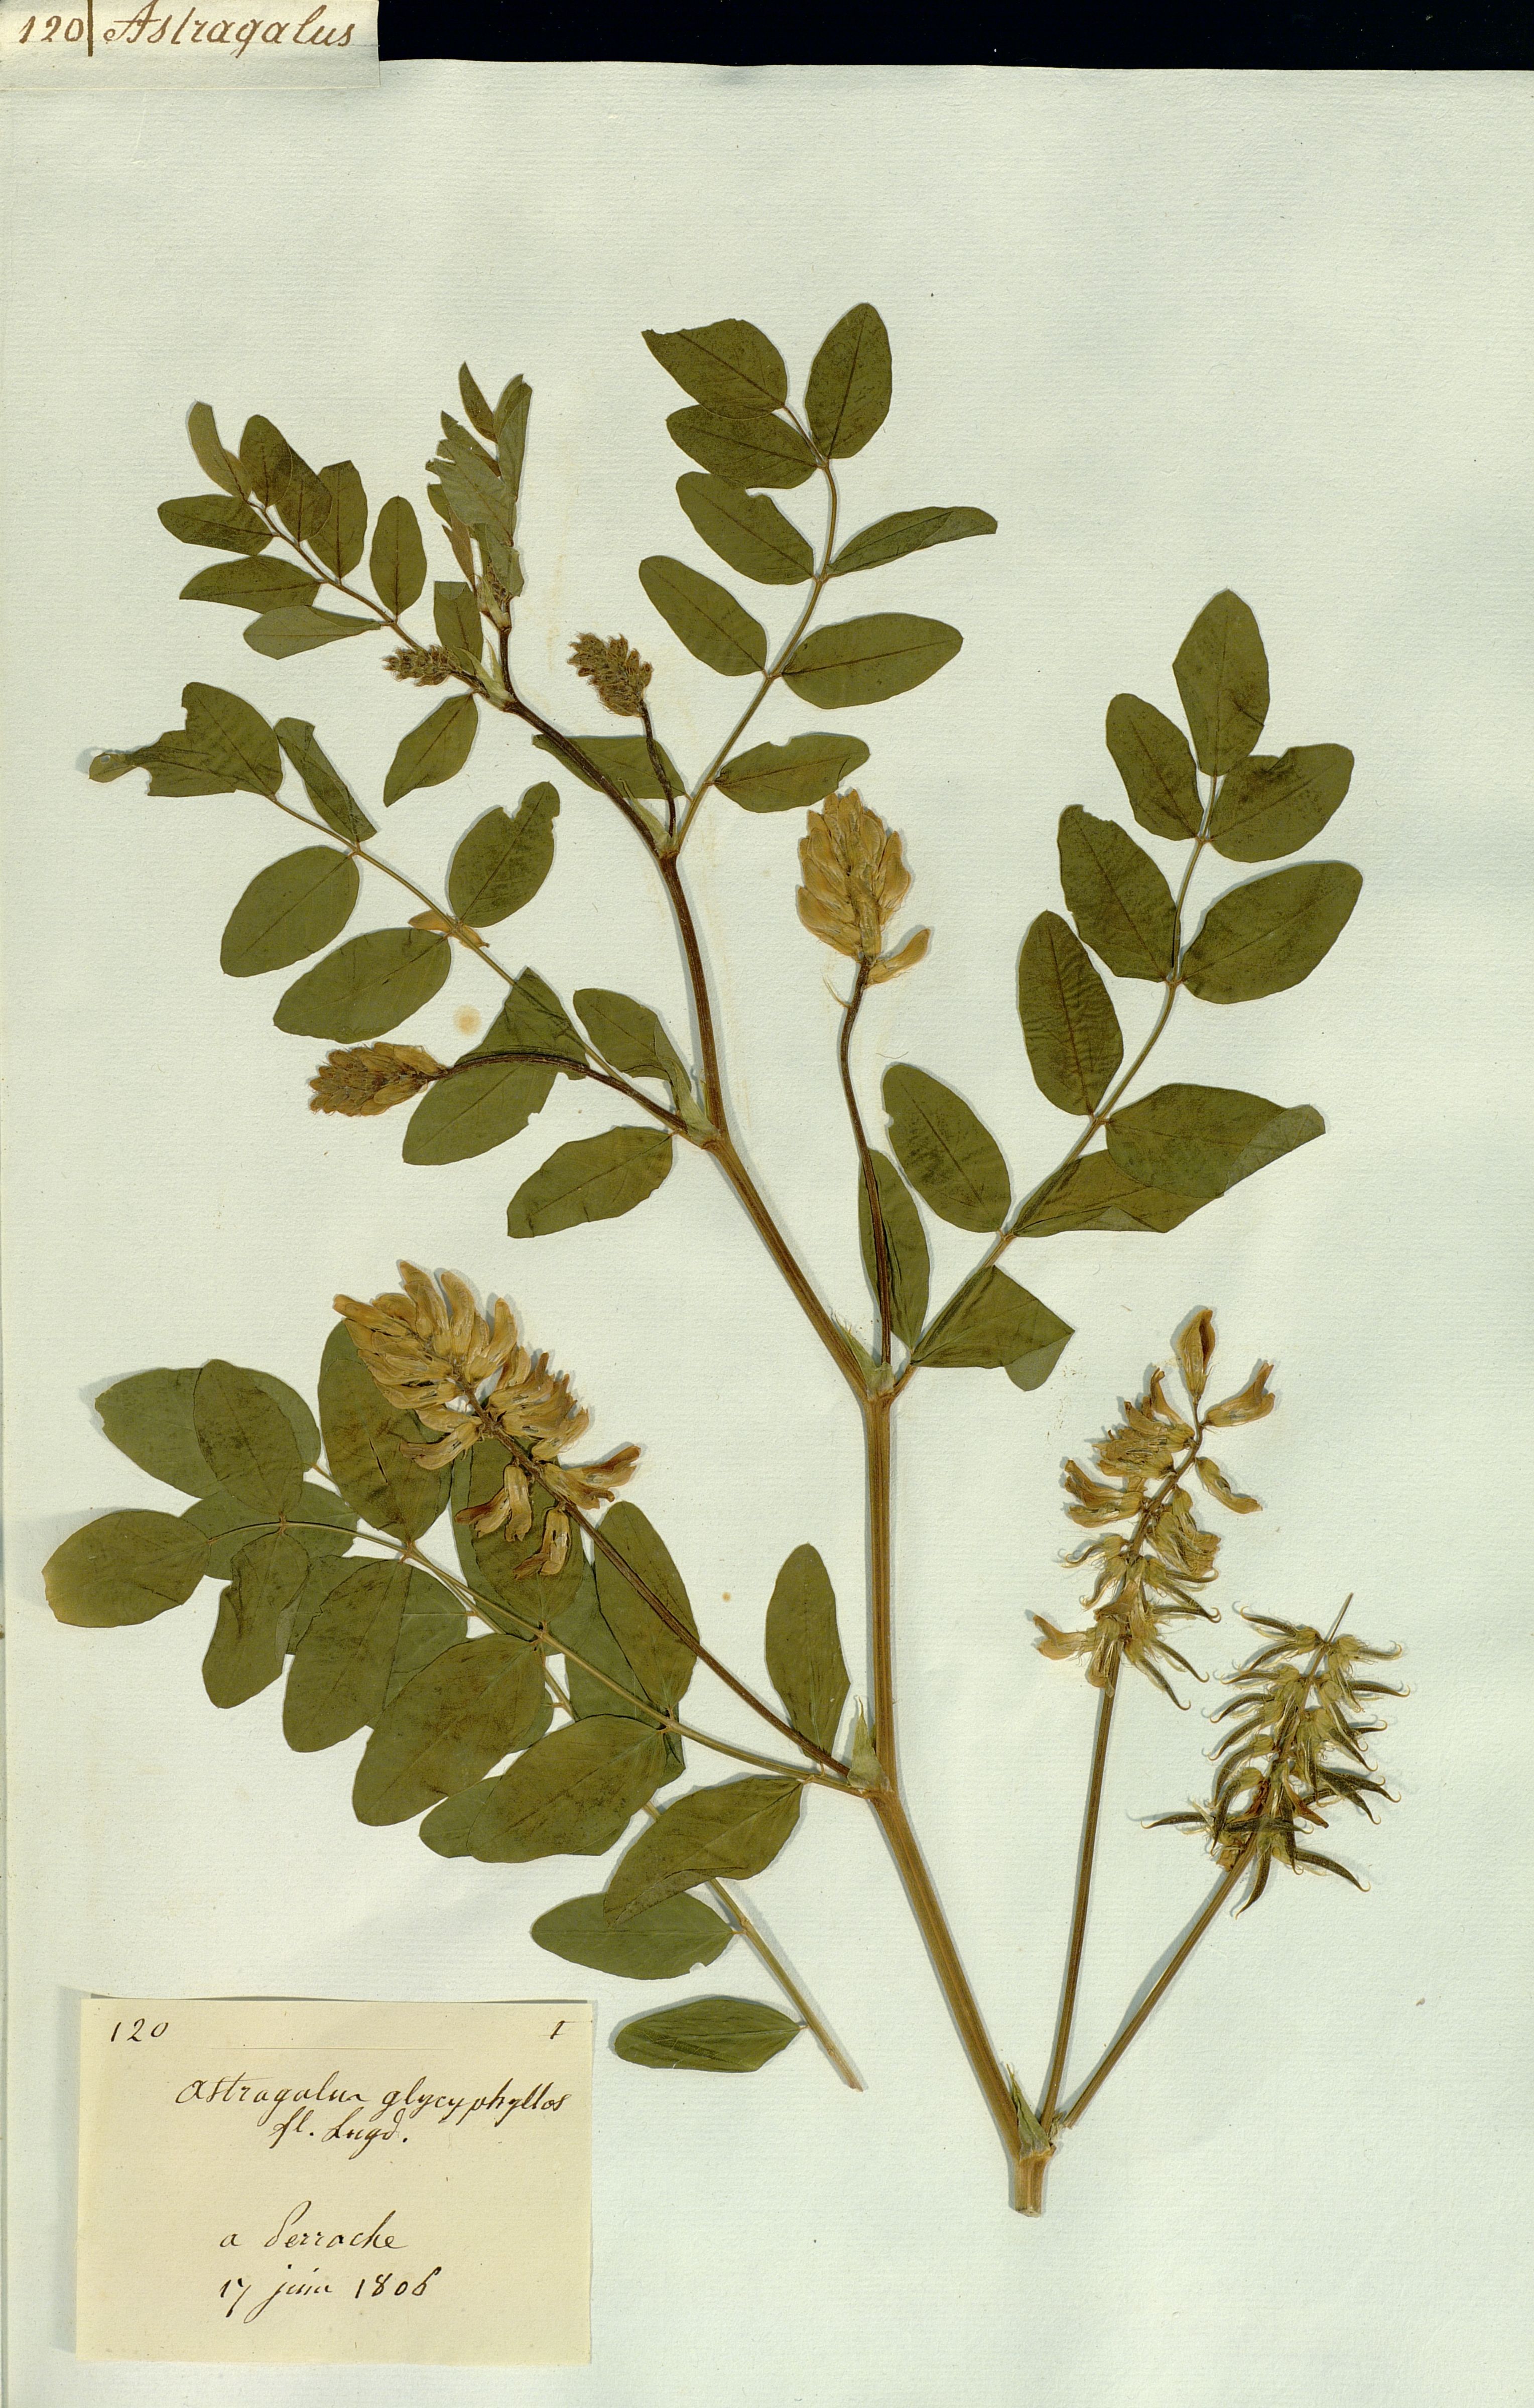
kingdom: Plantae
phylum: Tracheophyta
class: Magnoliopsida
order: Fabales
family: Fabaceae
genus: Astragalus
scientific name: Astragalus glycyphyllos
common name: Wild liquorice
